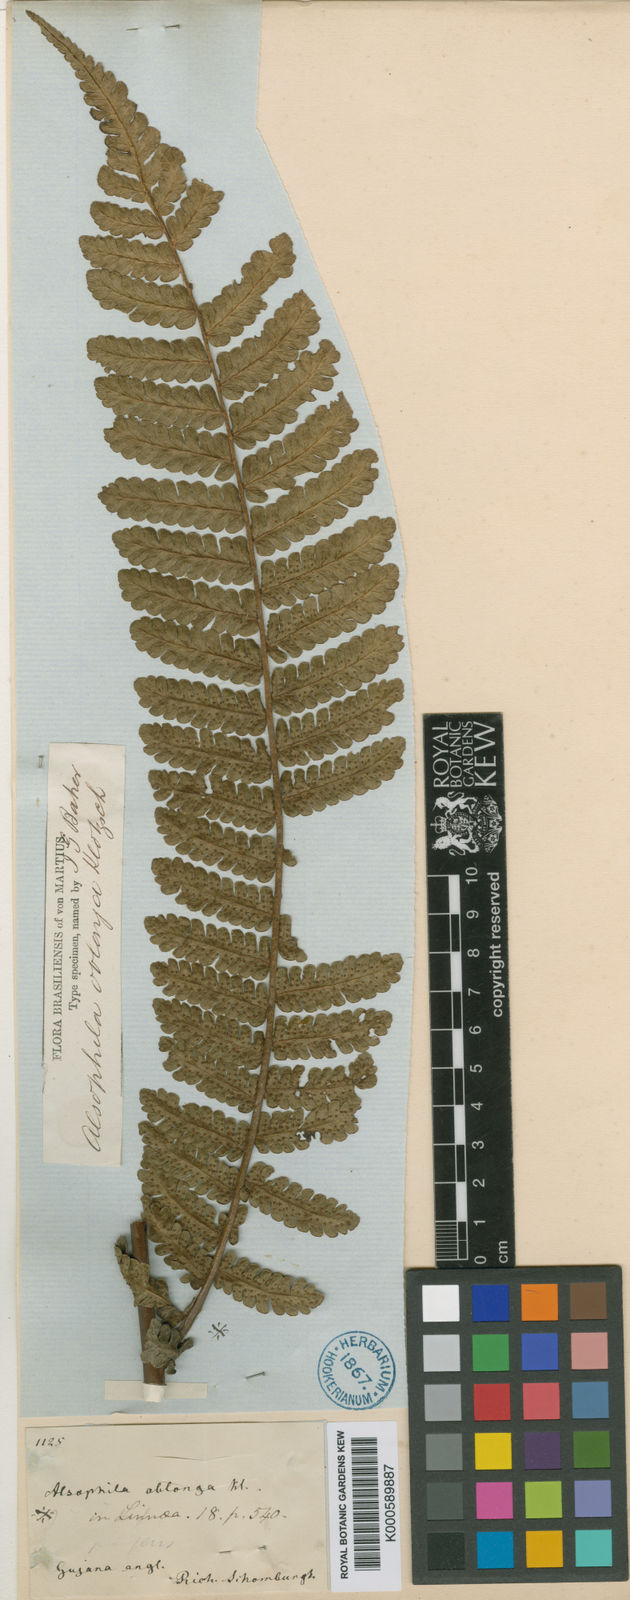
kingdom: Plantae
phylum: Tracheophyta
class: Polypodiopsida
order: Cyatheales
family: Cyatheaceae
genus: Cyathea
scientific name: Cyathea oblonga
